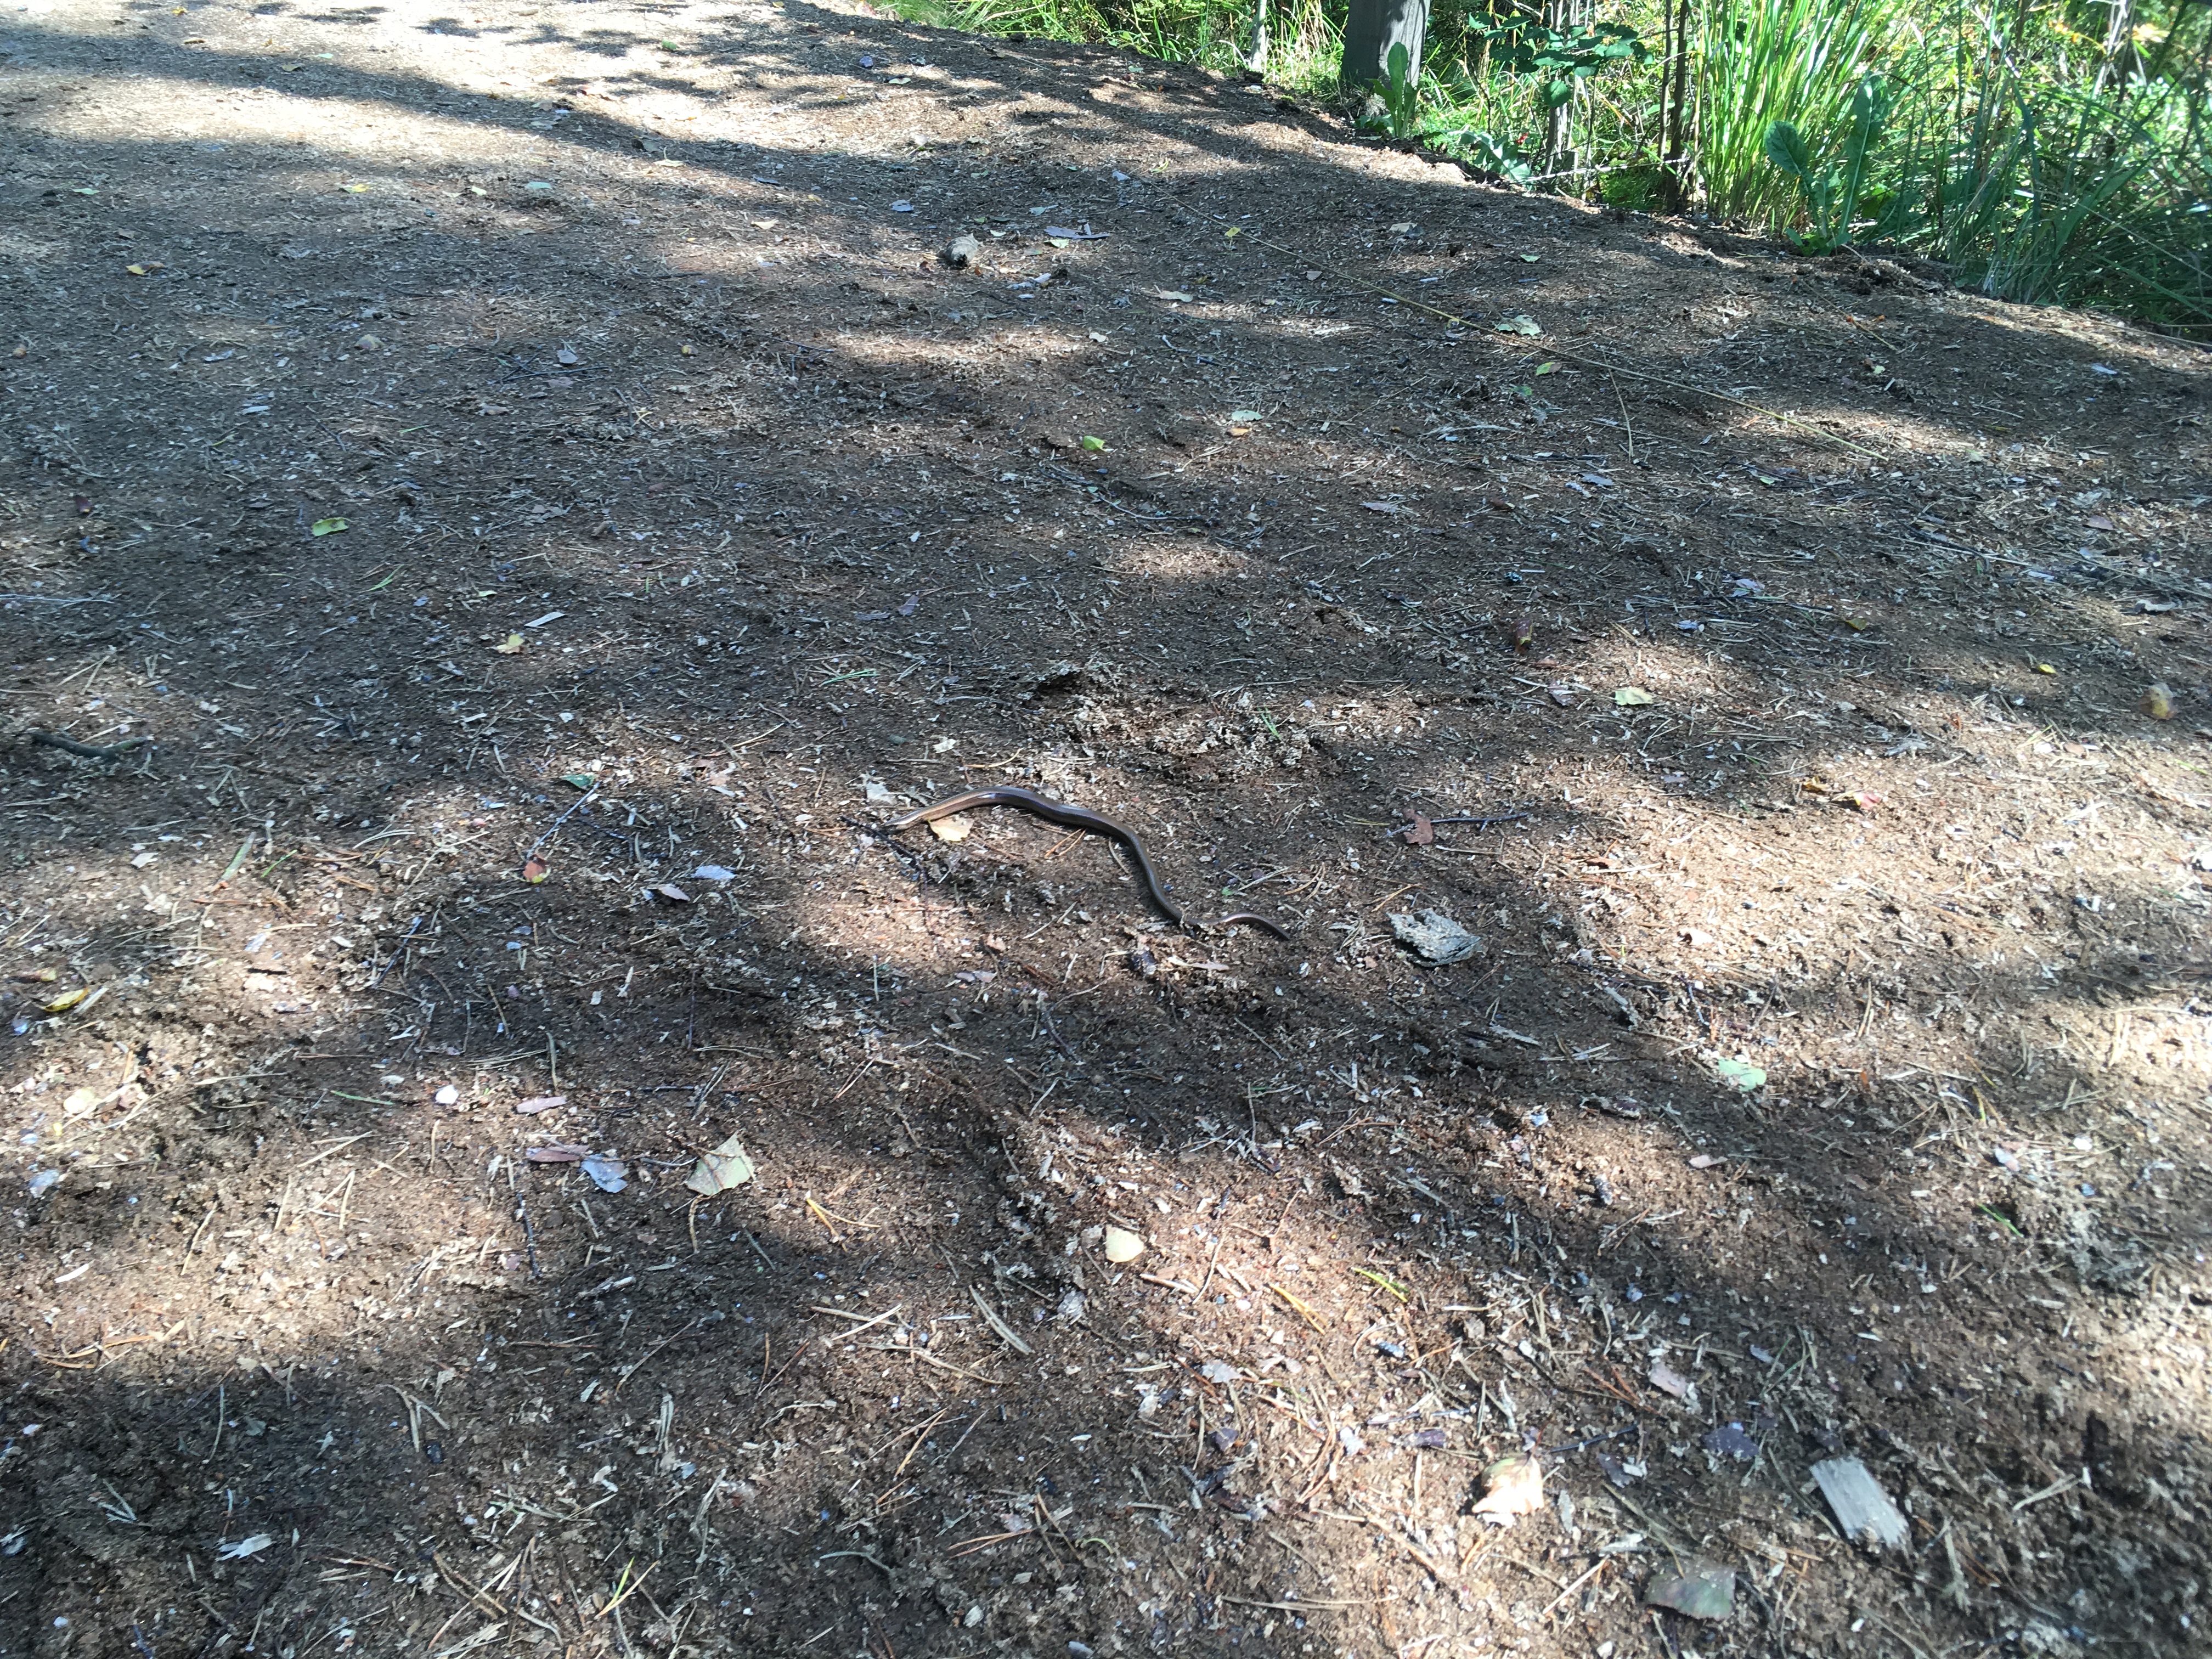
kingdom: Animalia
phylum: Chordata
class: Squamata
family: Anguidae
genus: Anguis
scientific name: Anguis colchica
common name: Slow worm
